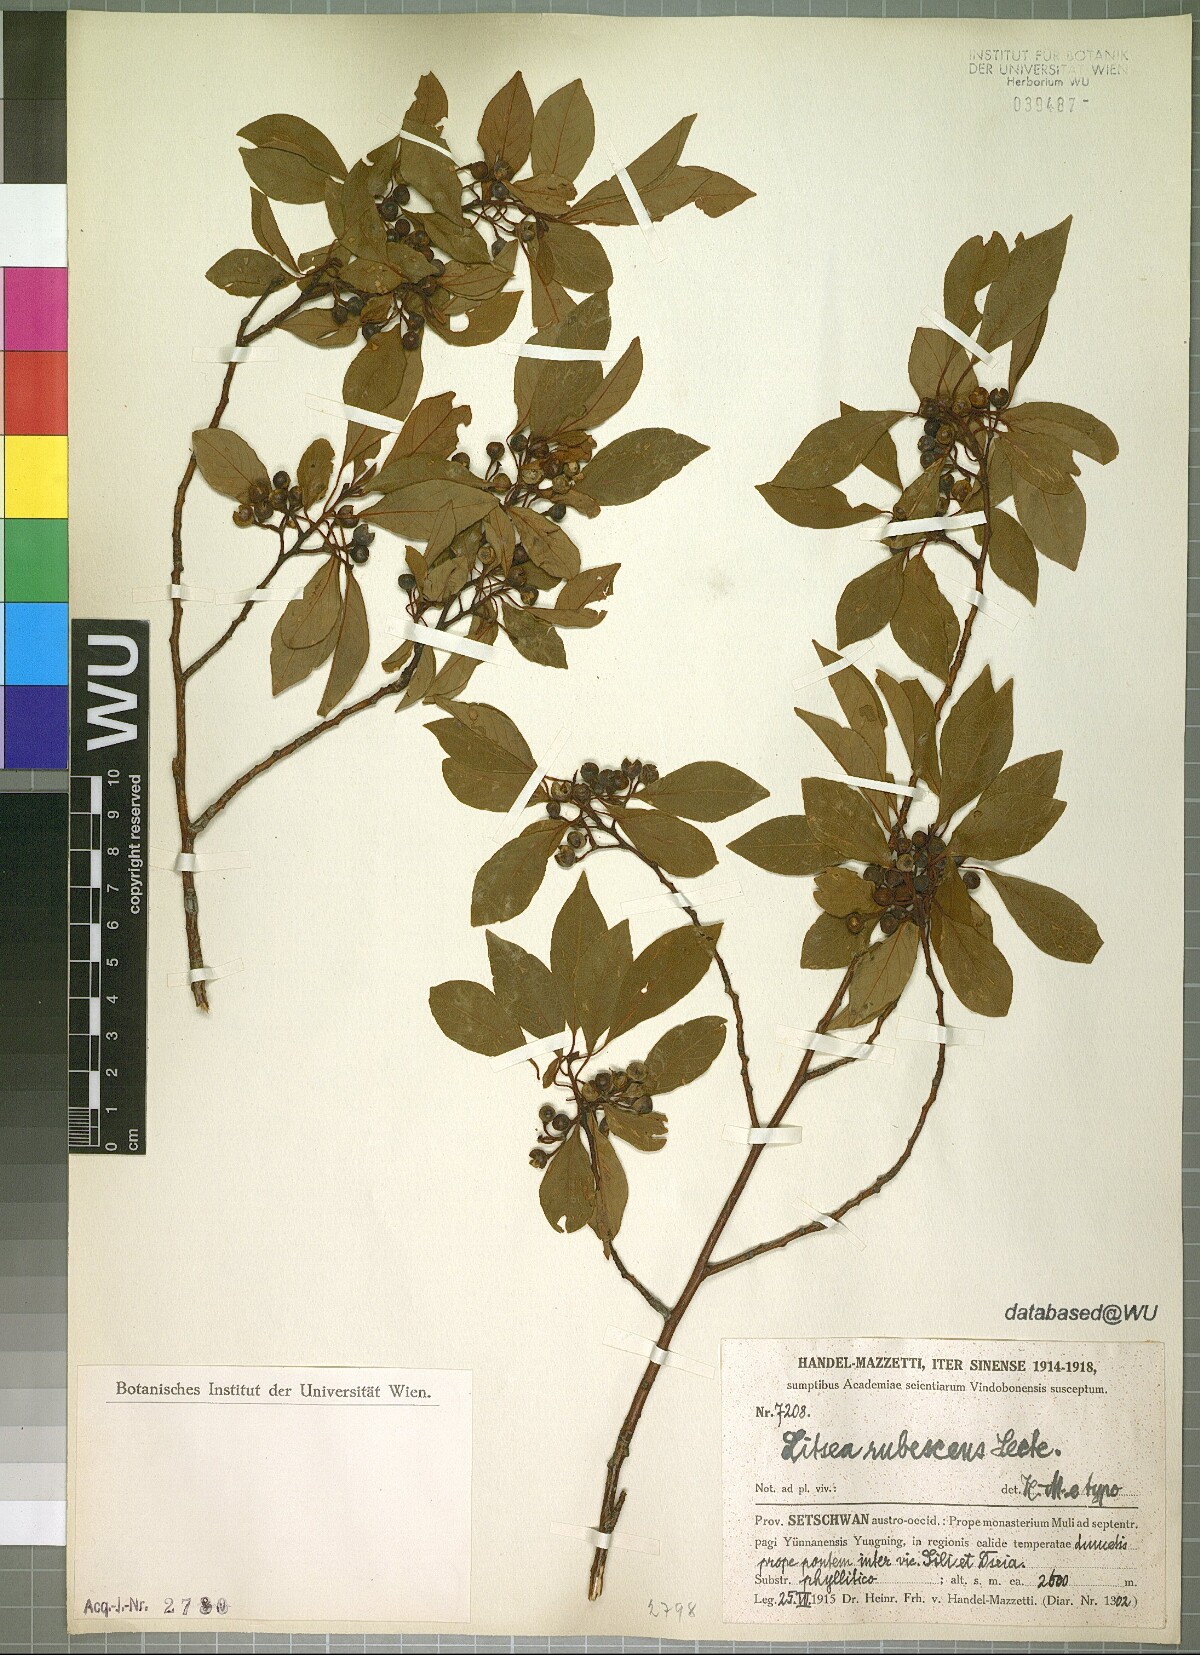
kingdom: Plantae
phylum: Tracheophyta
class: Magnoliopsida
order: Laurales
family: Lauraceae
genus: Litsea
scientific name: Litsea rubescens
